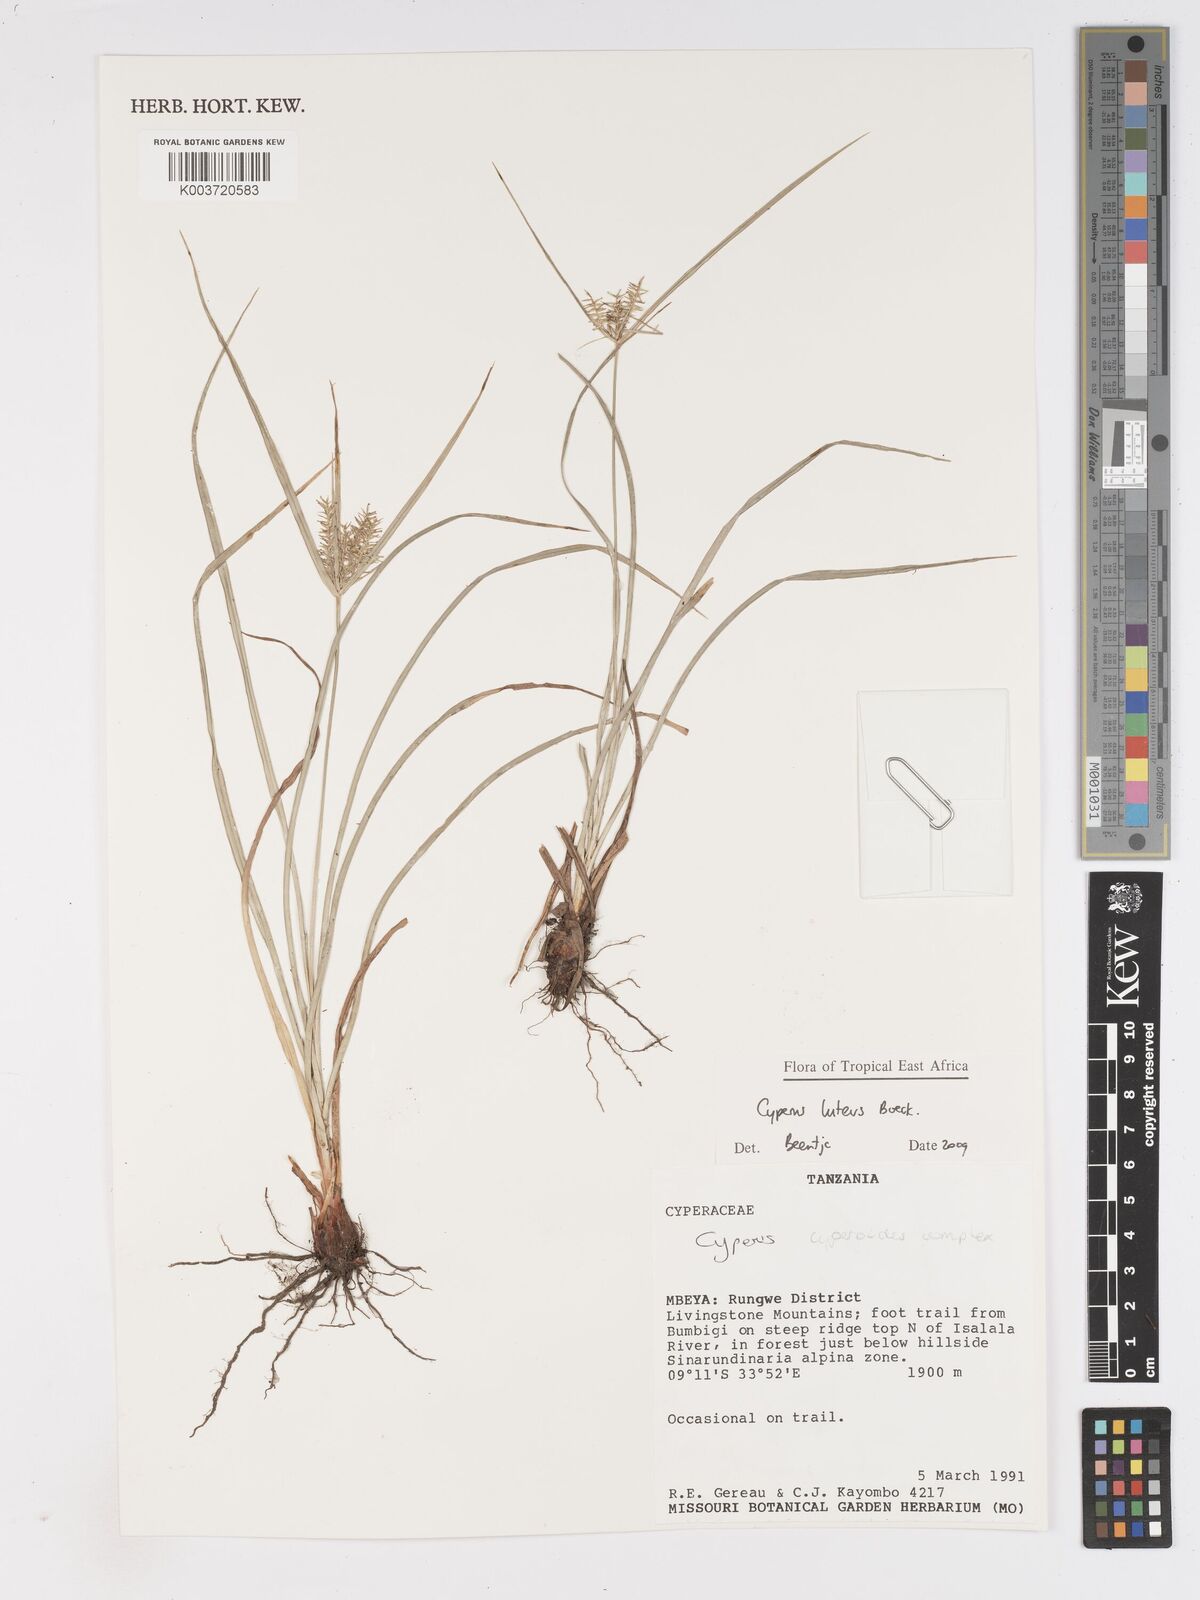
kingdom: Plantae
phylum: Tracheophyta
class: Liliopsida
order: Poales
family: Cyperaceae
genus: Cyperus
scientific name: Cyperus luteus
